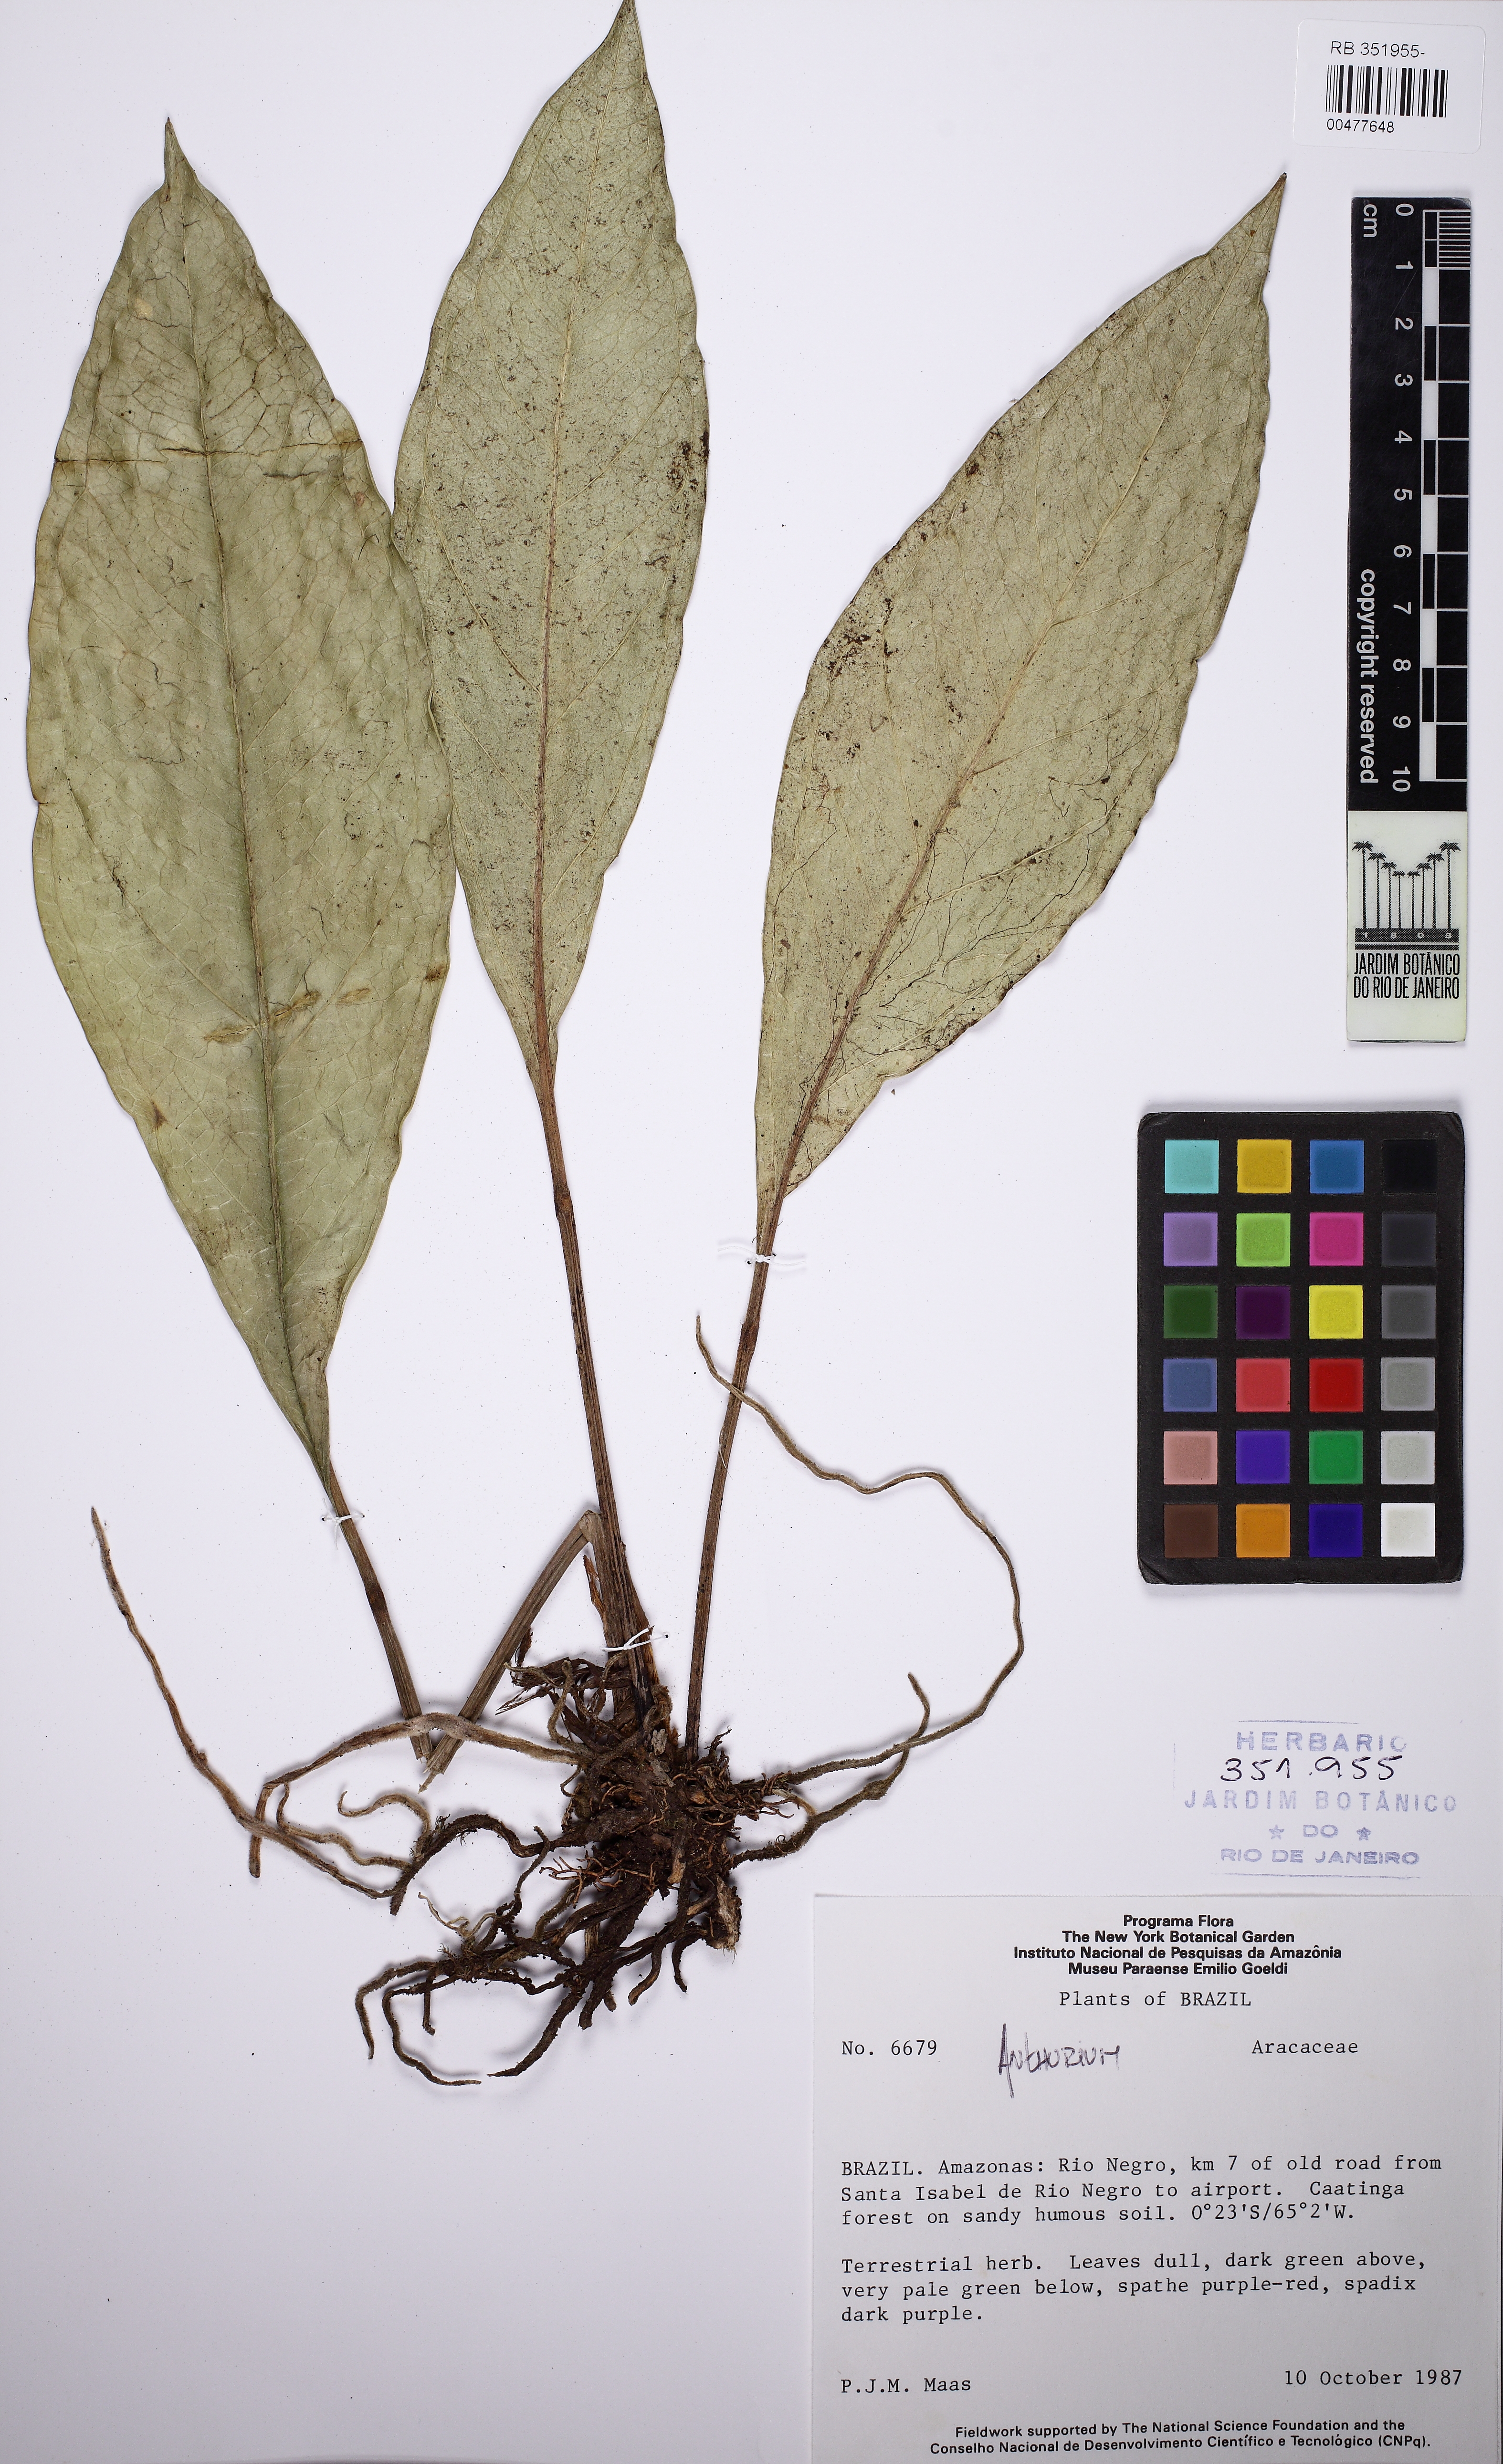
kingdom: Plantae
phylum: Tracheophyta
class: Liliopsida
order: Alismatales
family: Araceae
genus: Anthurium
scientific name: Anthurium
